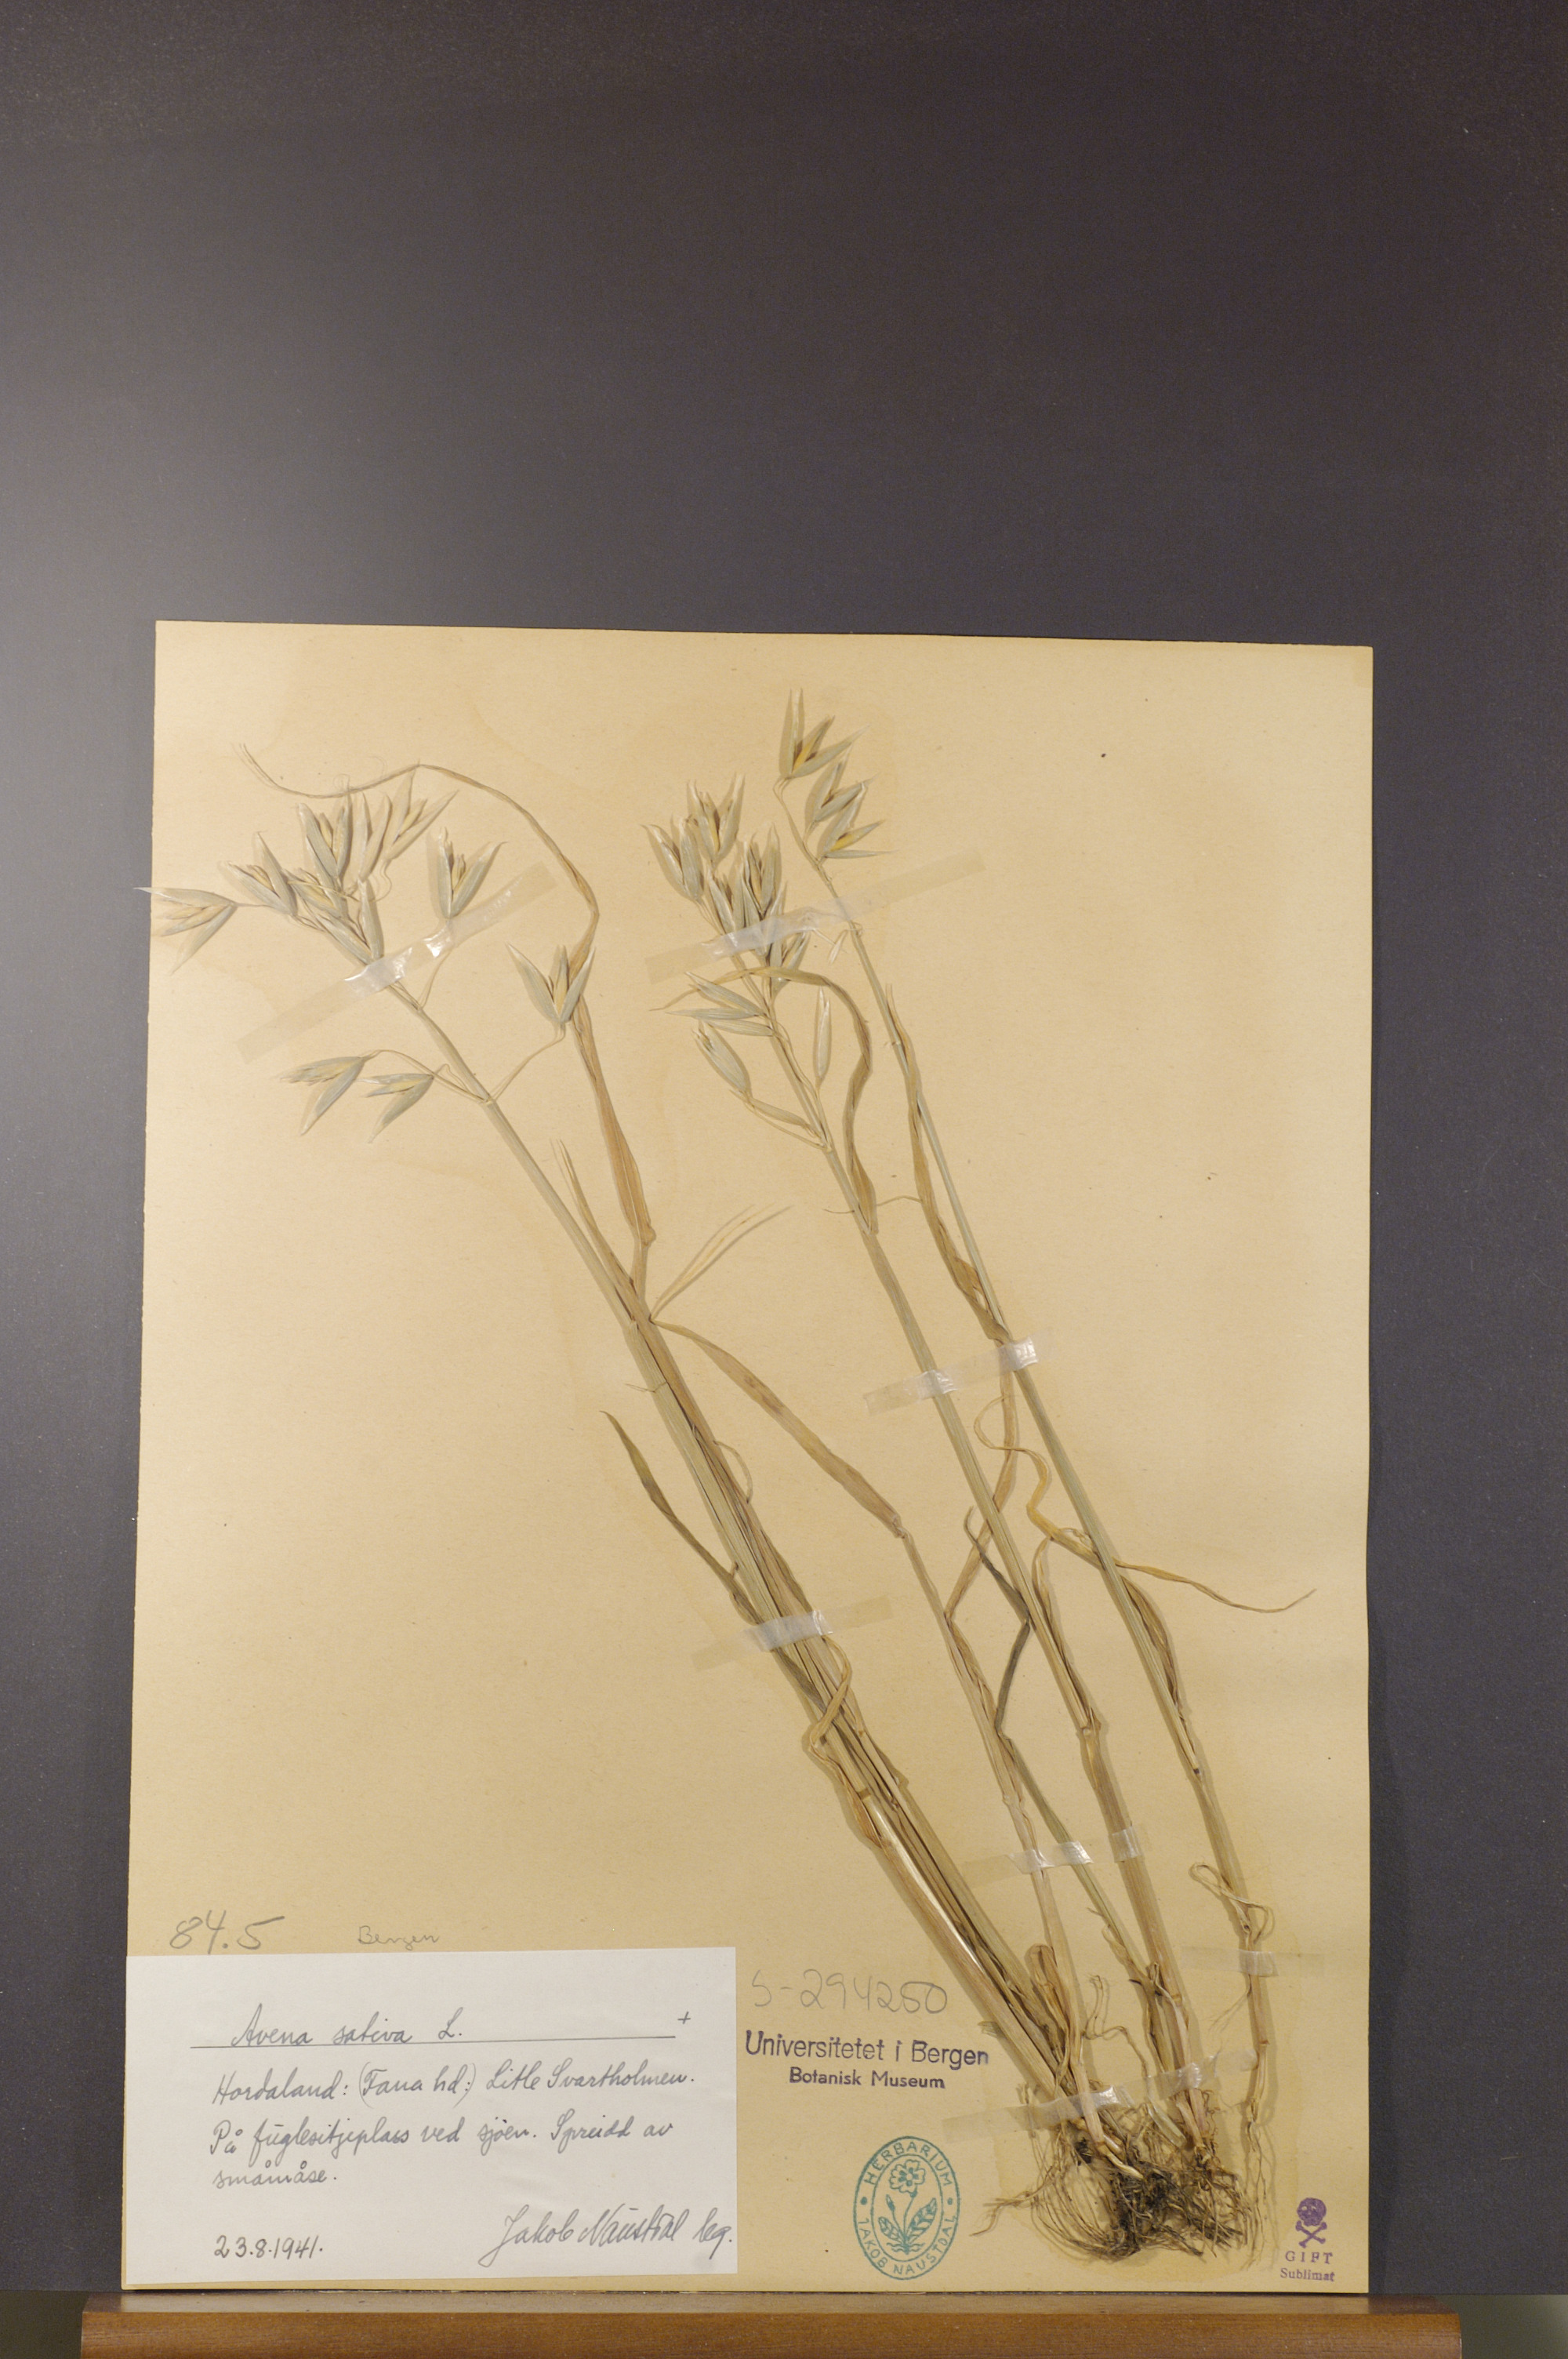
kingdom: Plantae
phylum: Tracheophyta
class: Liliopsida
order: Poales
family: Poaceae
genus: Avena
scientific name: Avena sativa
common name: Oat
